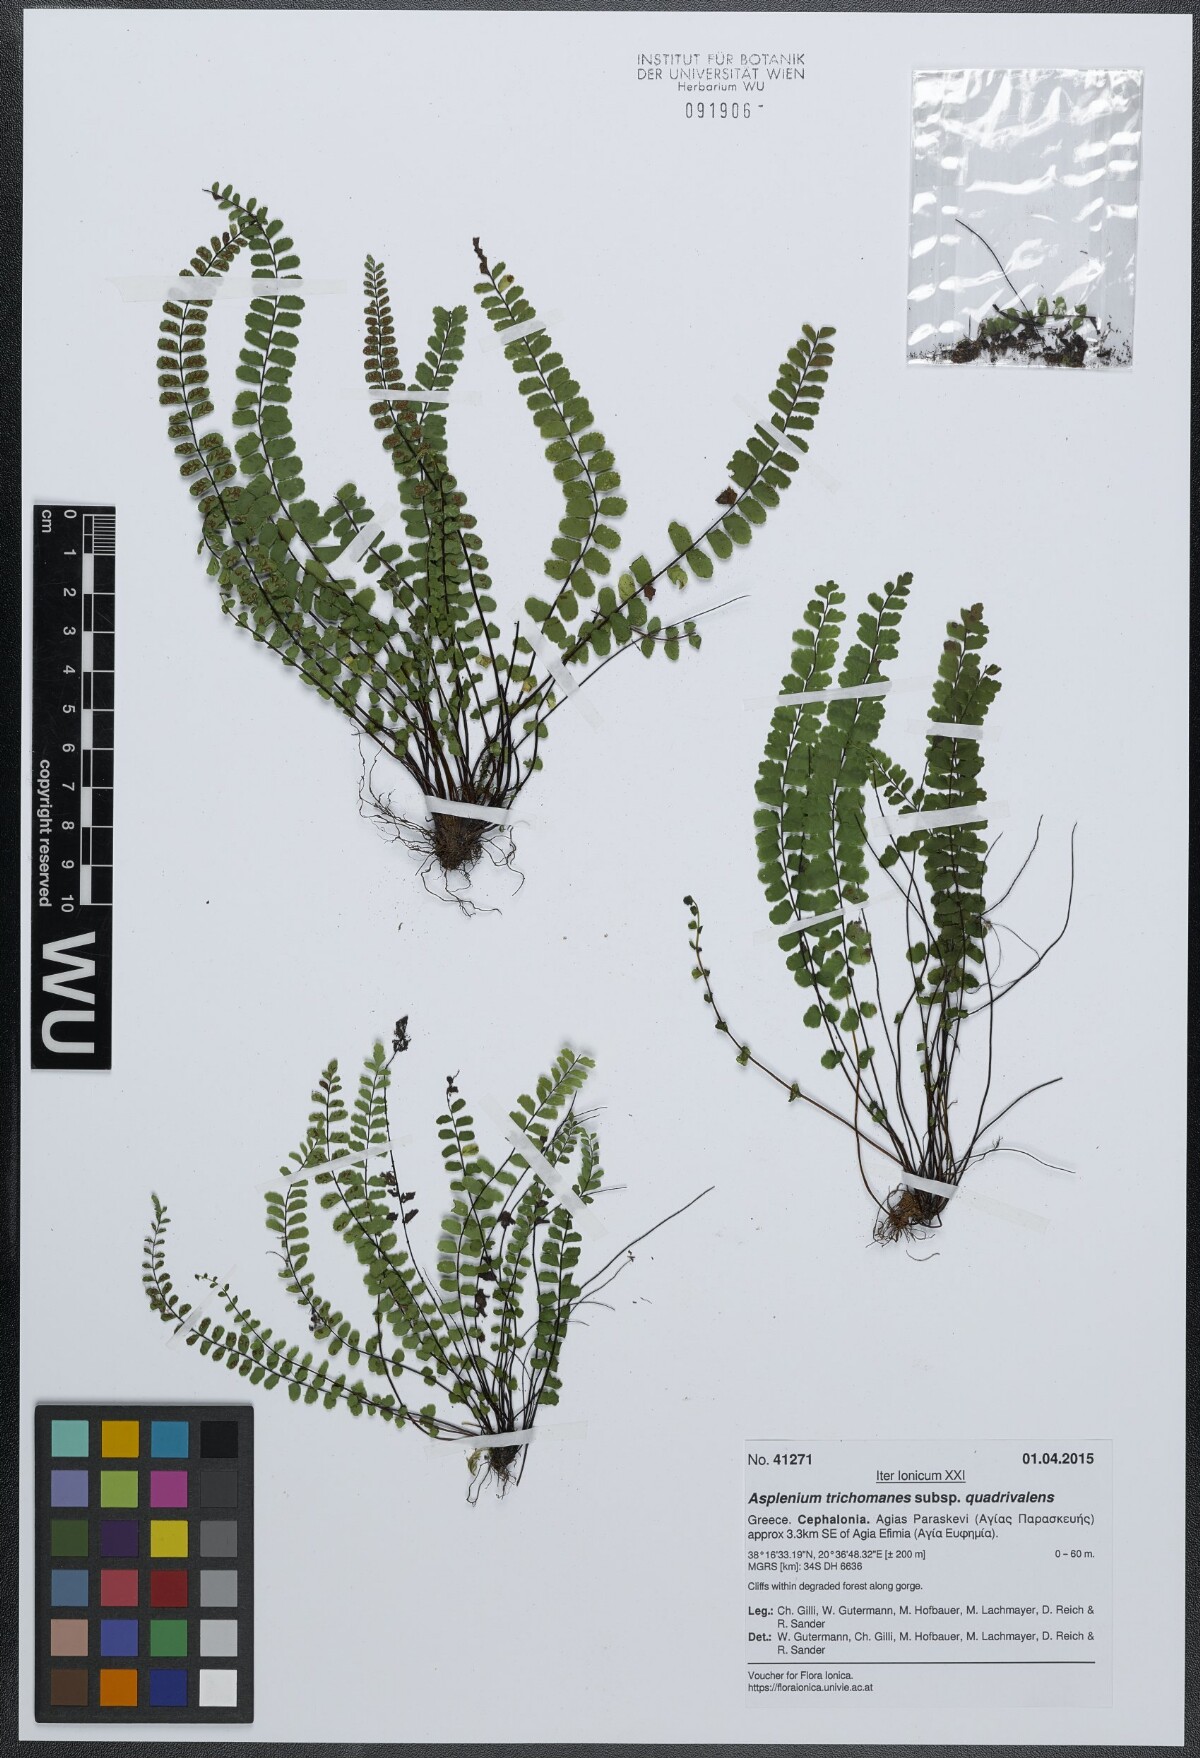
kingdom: Plantae
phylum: Tracheophyta
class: Polypodiopsida
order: Polypodiales
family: Aspleniaceae
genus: Asplenium
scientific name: Asplenium quadrivalens
